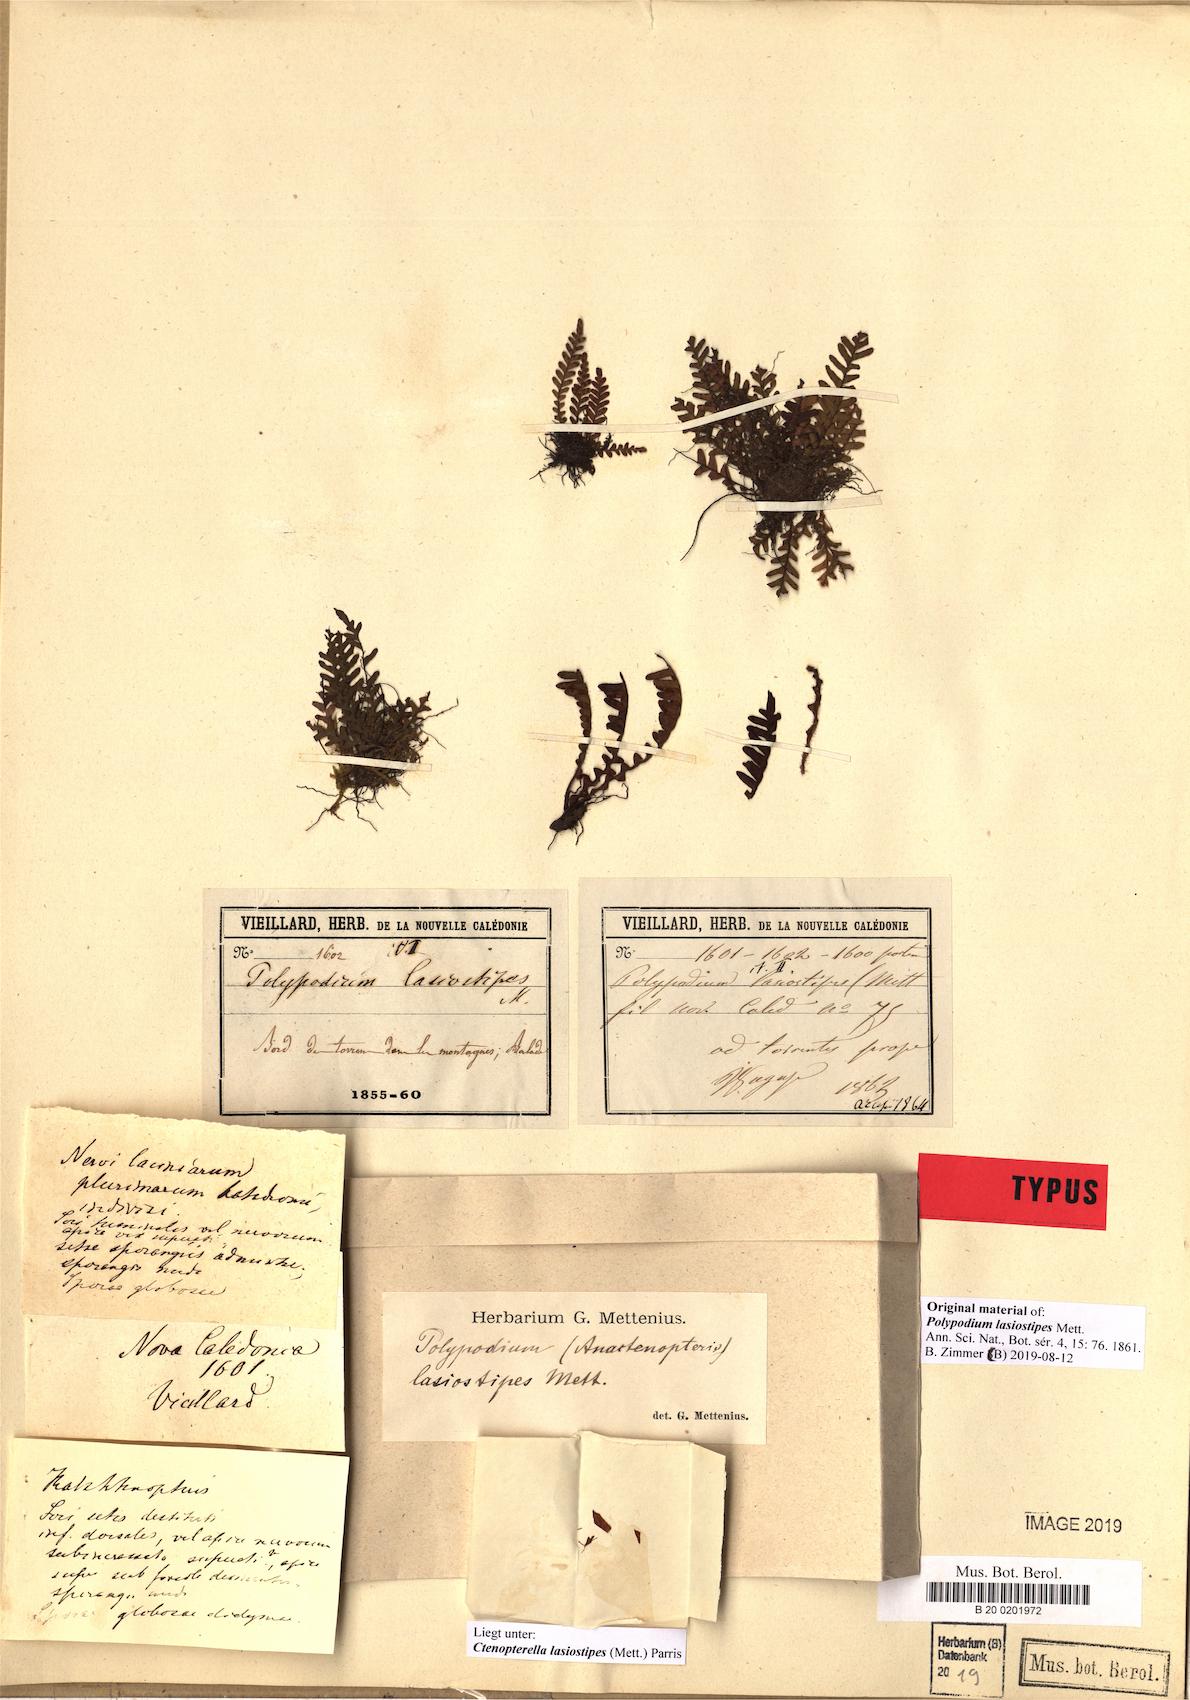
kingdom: Plantae
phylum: Tracheophyta
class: Polypodiopsida
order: Polypodiales
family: Polypodiaceae
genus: Ctenopterella
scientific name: Ctenopterella lasiostipes
